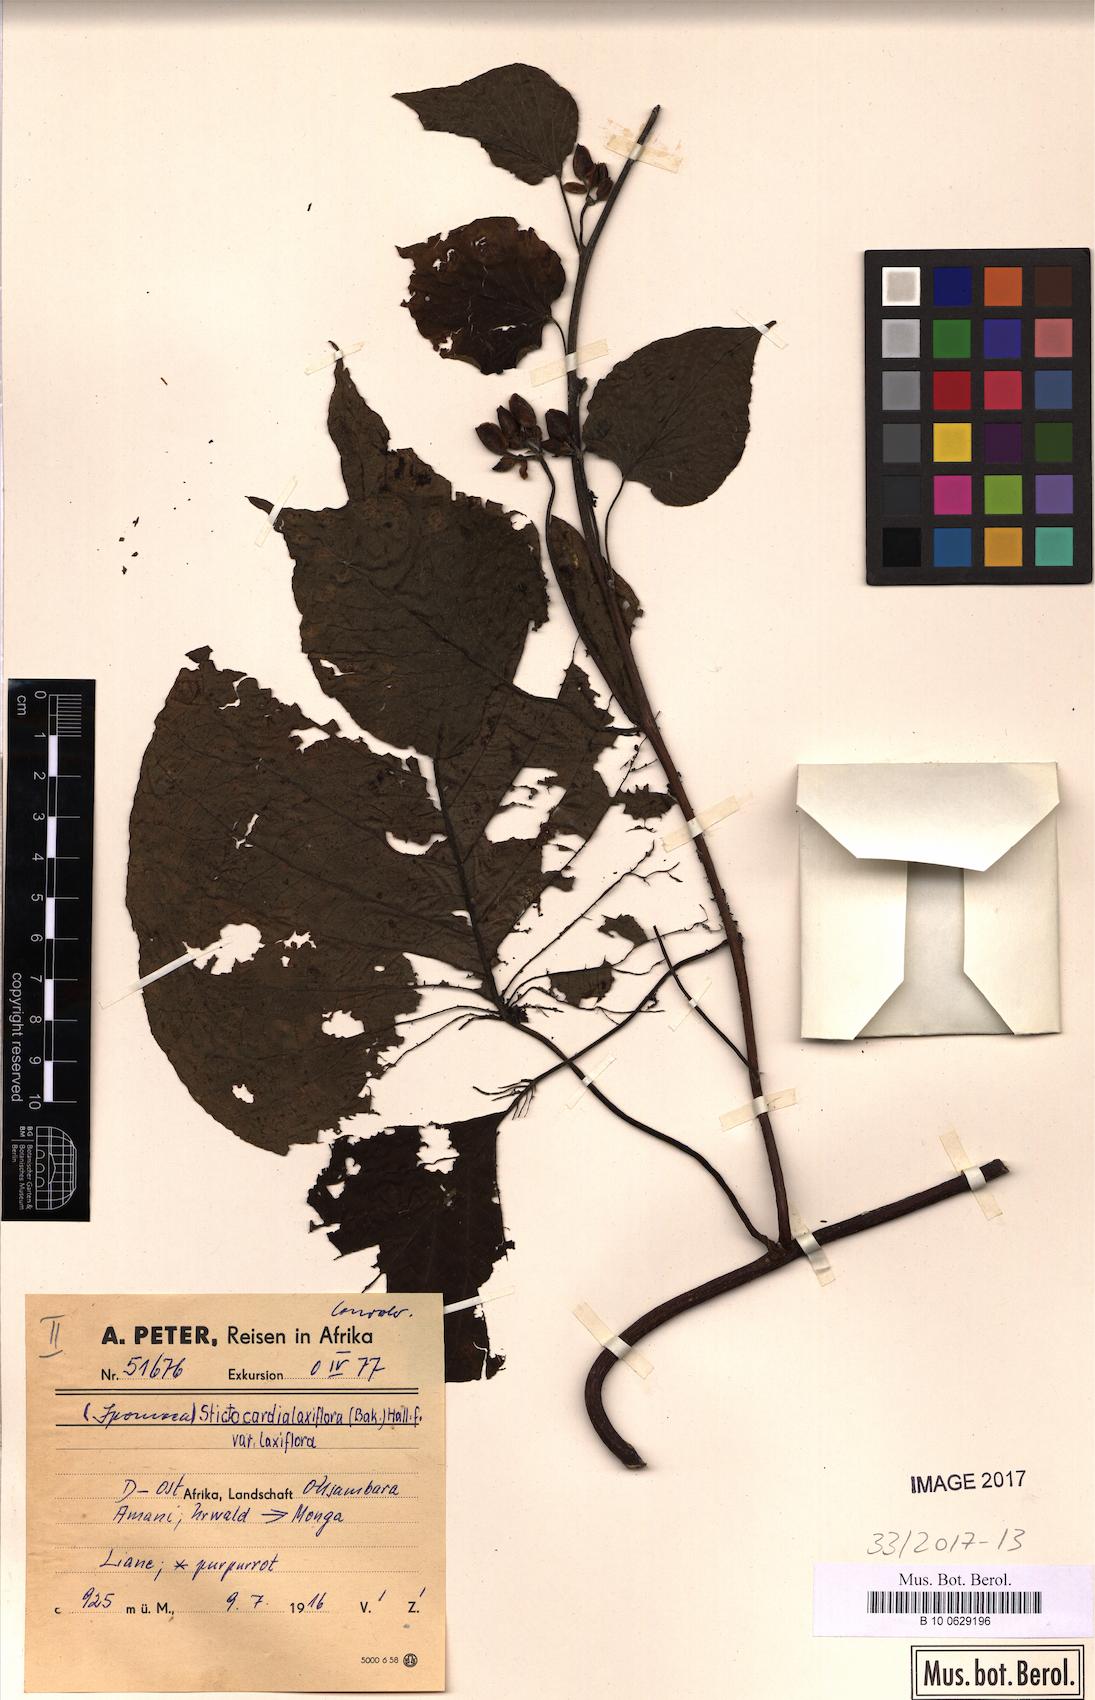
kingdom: Plantae
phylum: Tracheophyta
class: Magnoliopsida
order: Solanales
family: Convolvulaceae
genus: Stictocardia
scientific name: Stictocardia laxiflora
